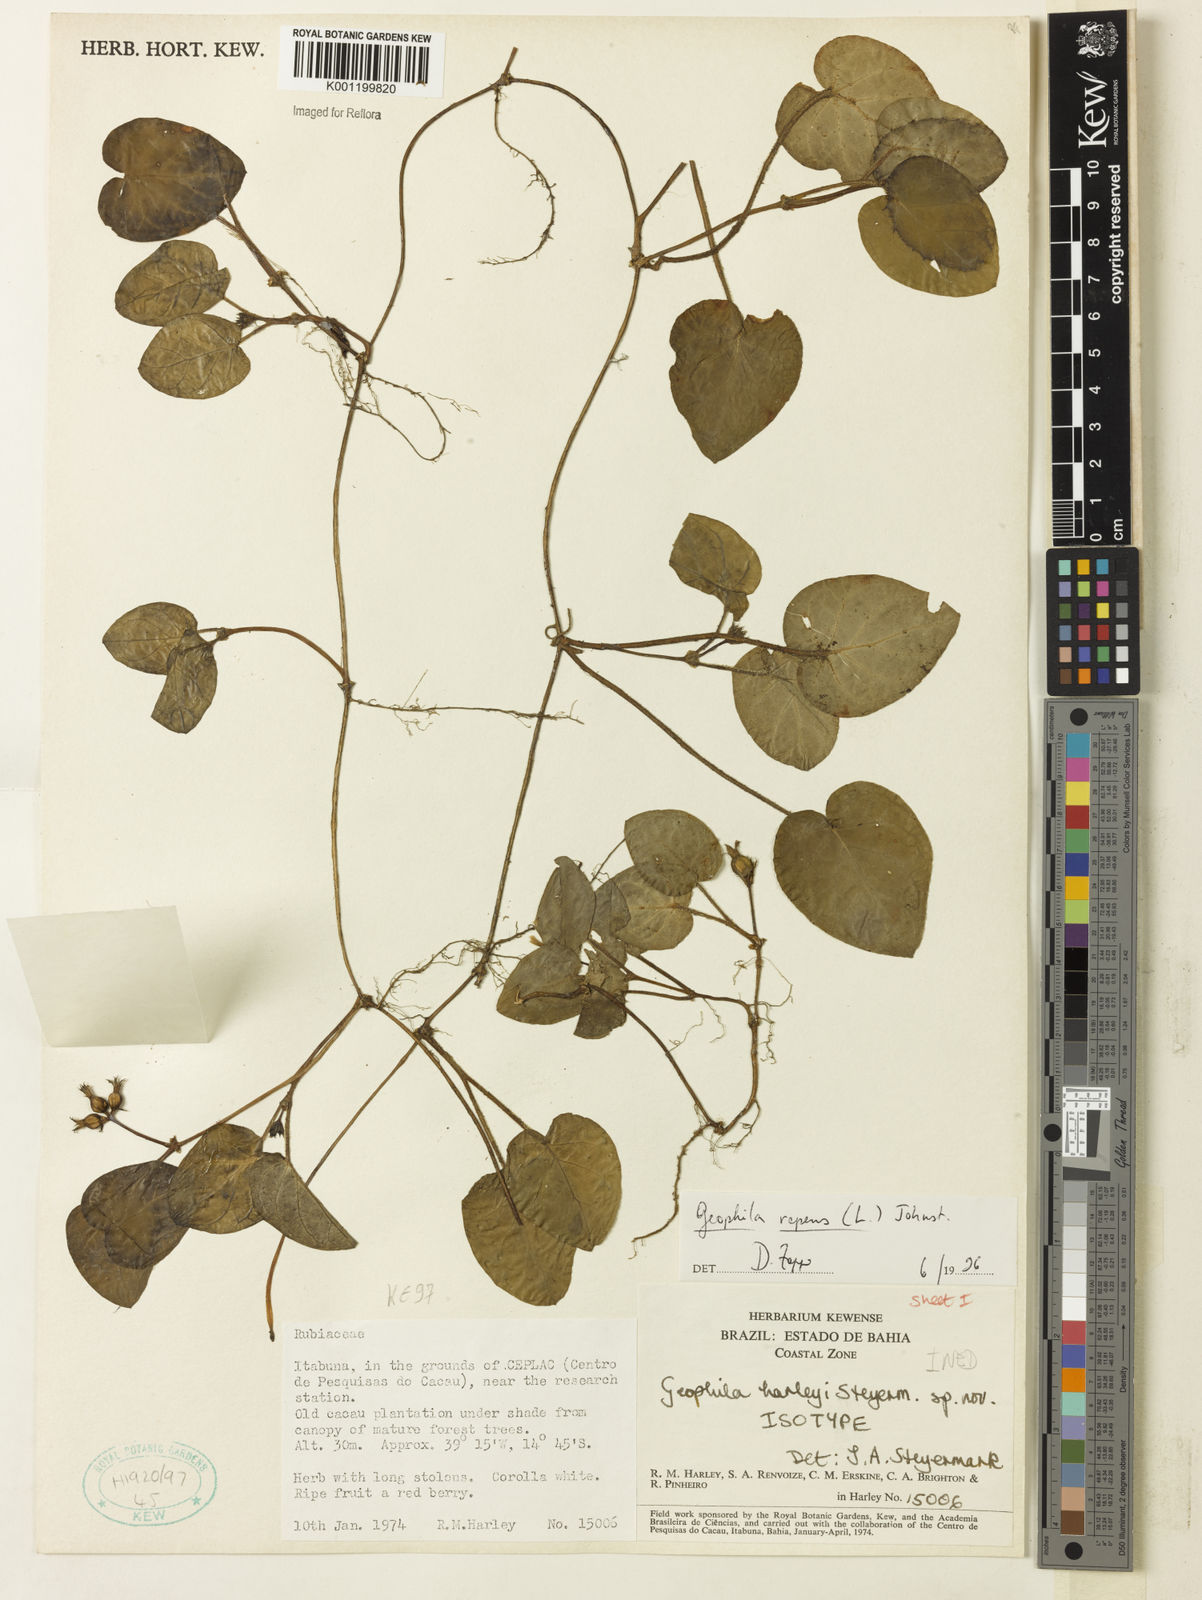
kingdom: Plantae
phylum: Tracheophyta
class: Magnoliopsida
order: Gentianales
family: Rubiaceae
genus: Geophila
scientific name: Geophila repens
